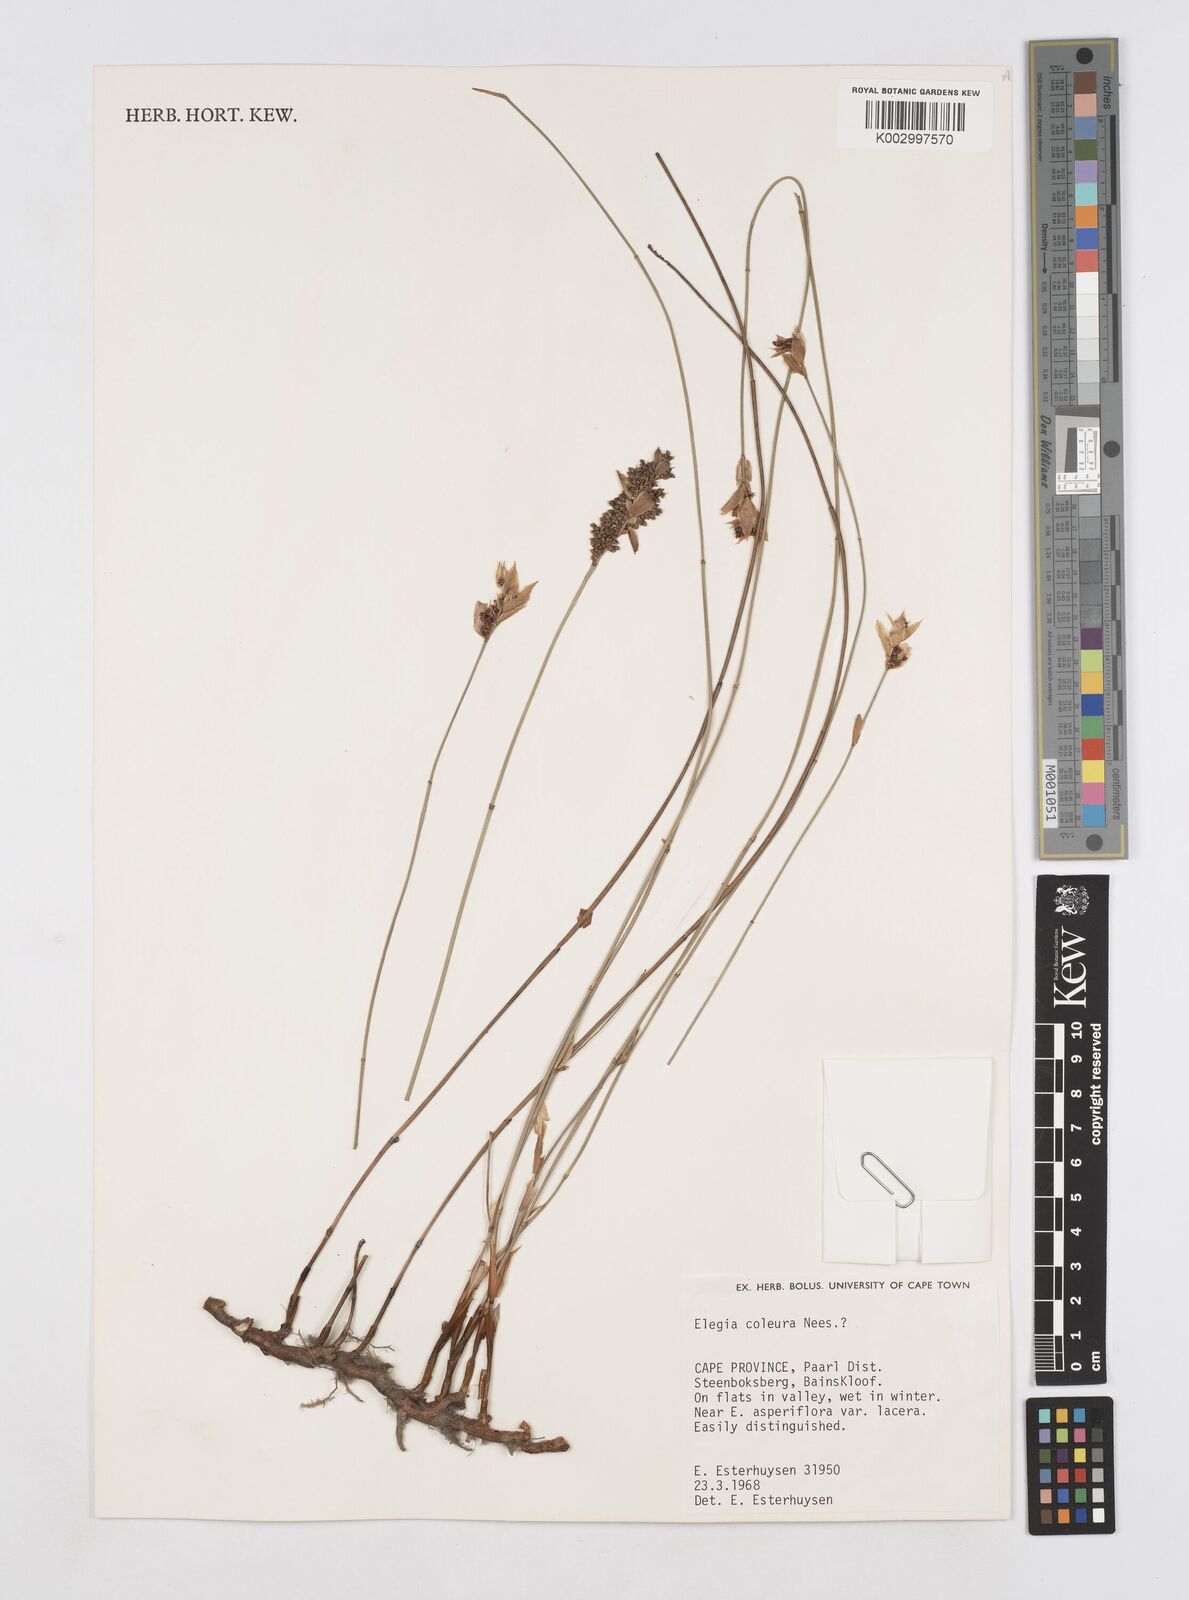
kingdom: Plantae
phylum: Tracheophyta
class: Liliopsida
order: Poales
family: Restionaceae
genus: Elegia
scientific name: Elegia coleura
